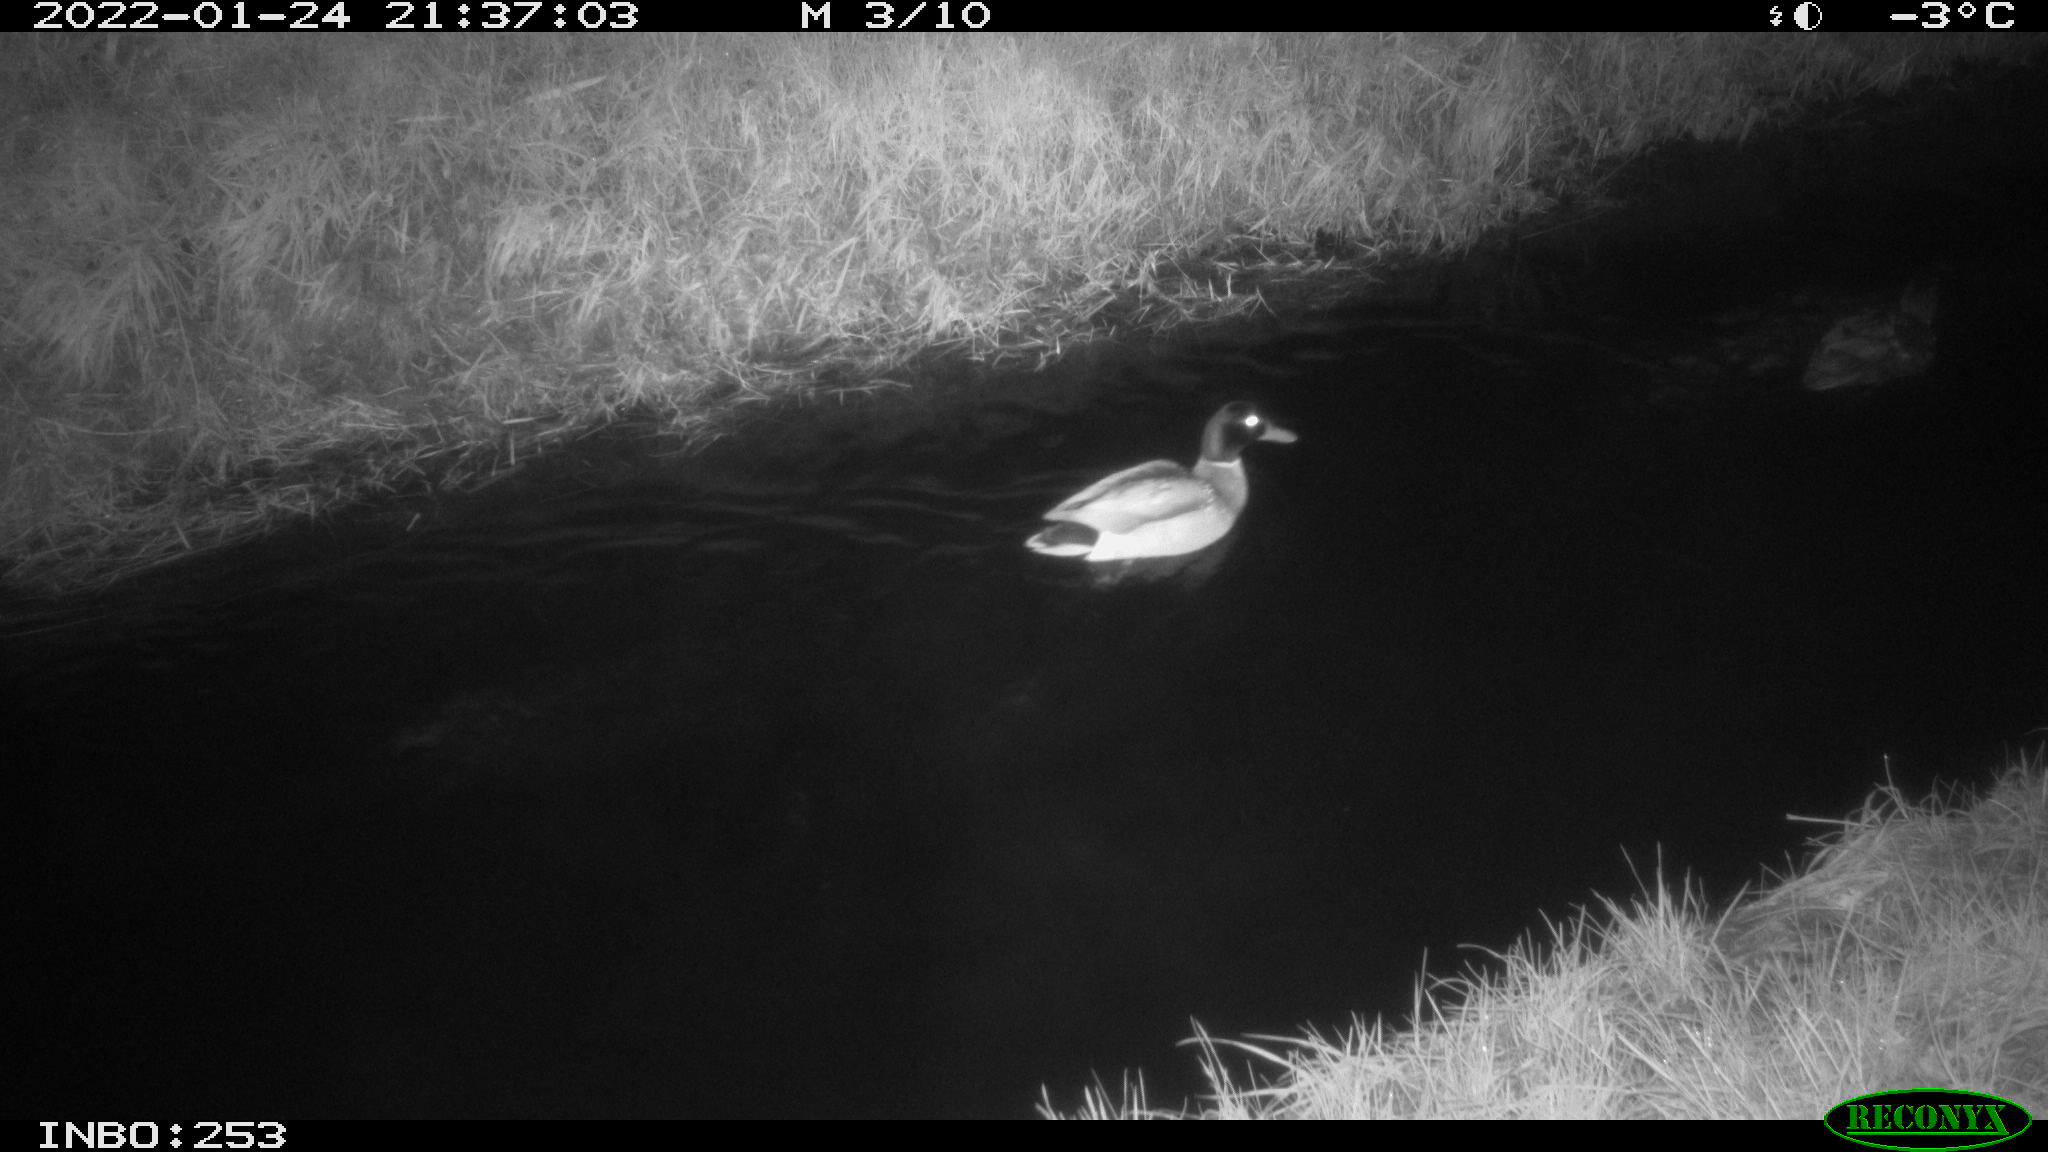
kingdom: Animalia
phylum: Chordata
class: Aves
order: Anseriformes
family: Anatidae
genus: Anas
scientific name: Anas
